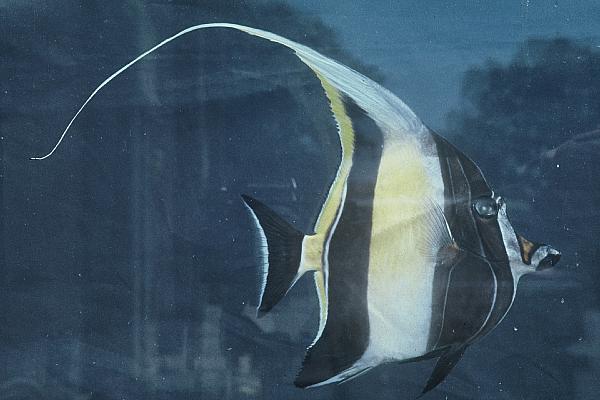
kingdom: Animalia
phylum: Chordata
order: Perciformes
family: Zanclidae
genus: Zanclus
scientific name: Zanclus cornutus
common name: Moorish idol
